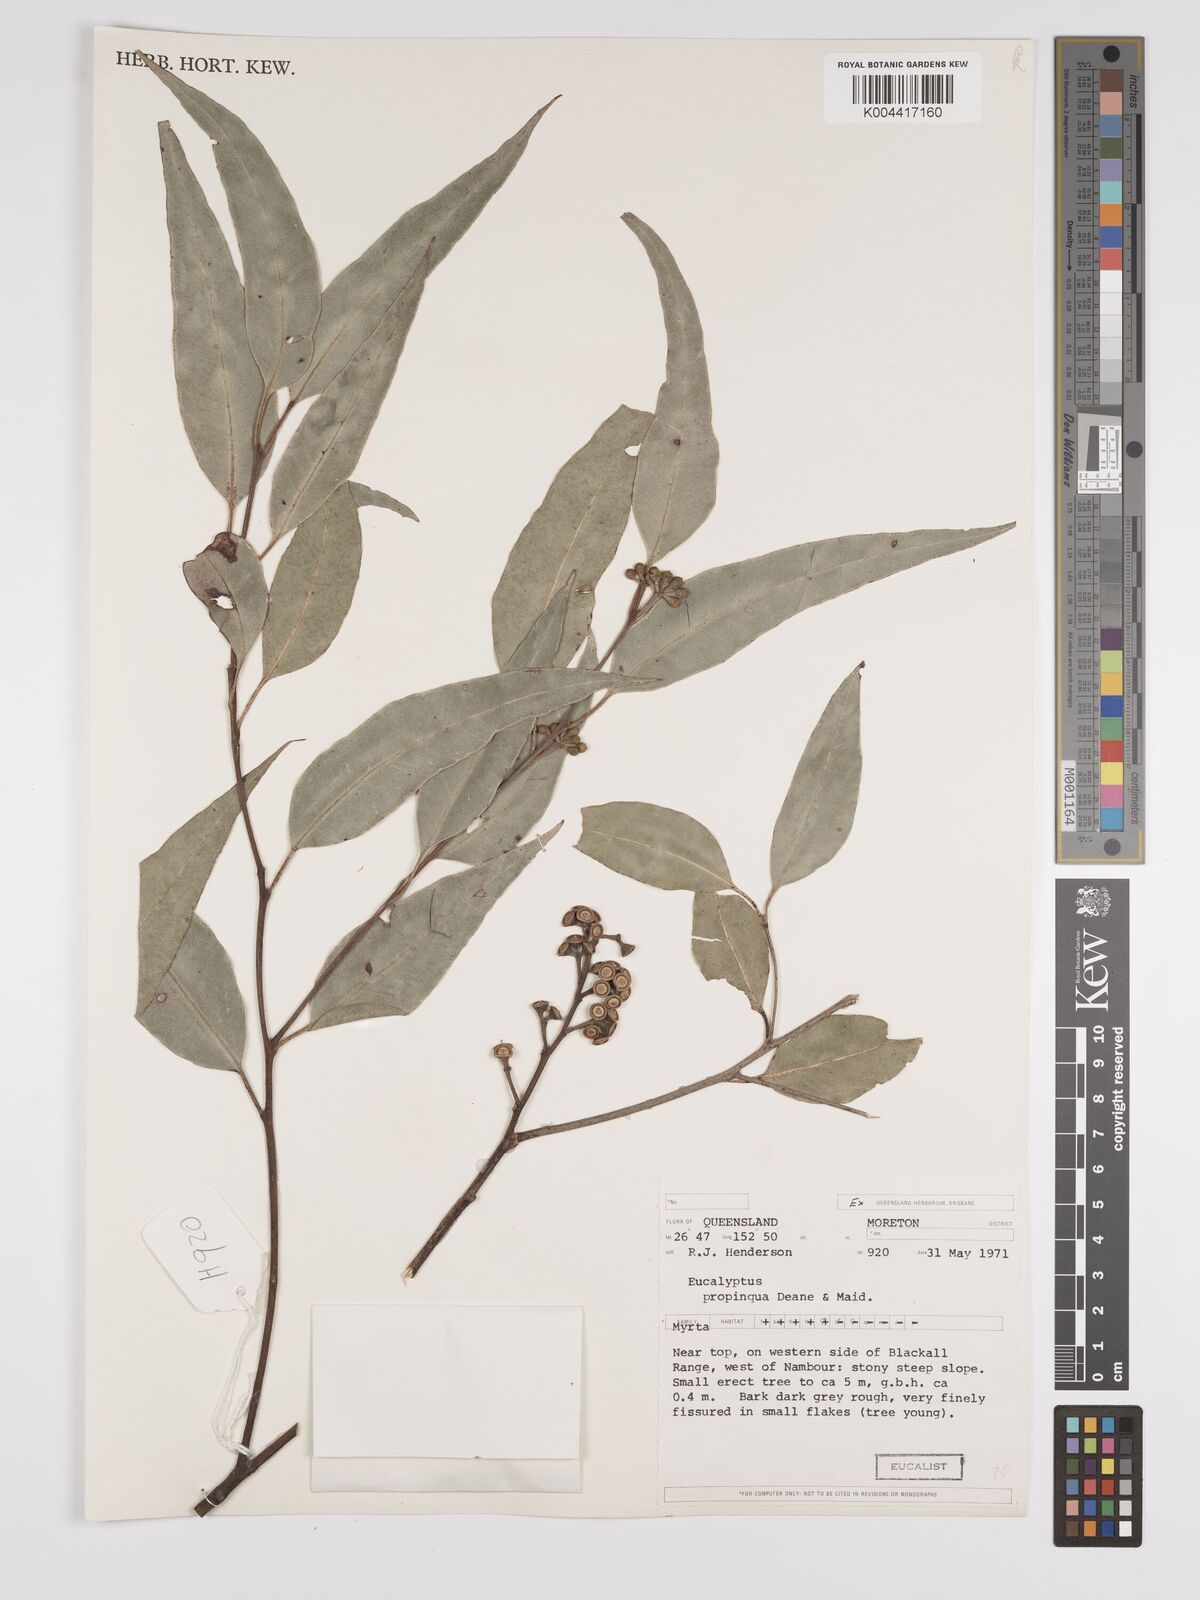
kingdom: Plantae
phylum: Tracheophyta
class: Magnoliopsida
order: Myrtales
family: Myrtaceae
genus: Eucalyptus
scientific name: Eucalyptus propinqua
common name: Grey-gum
